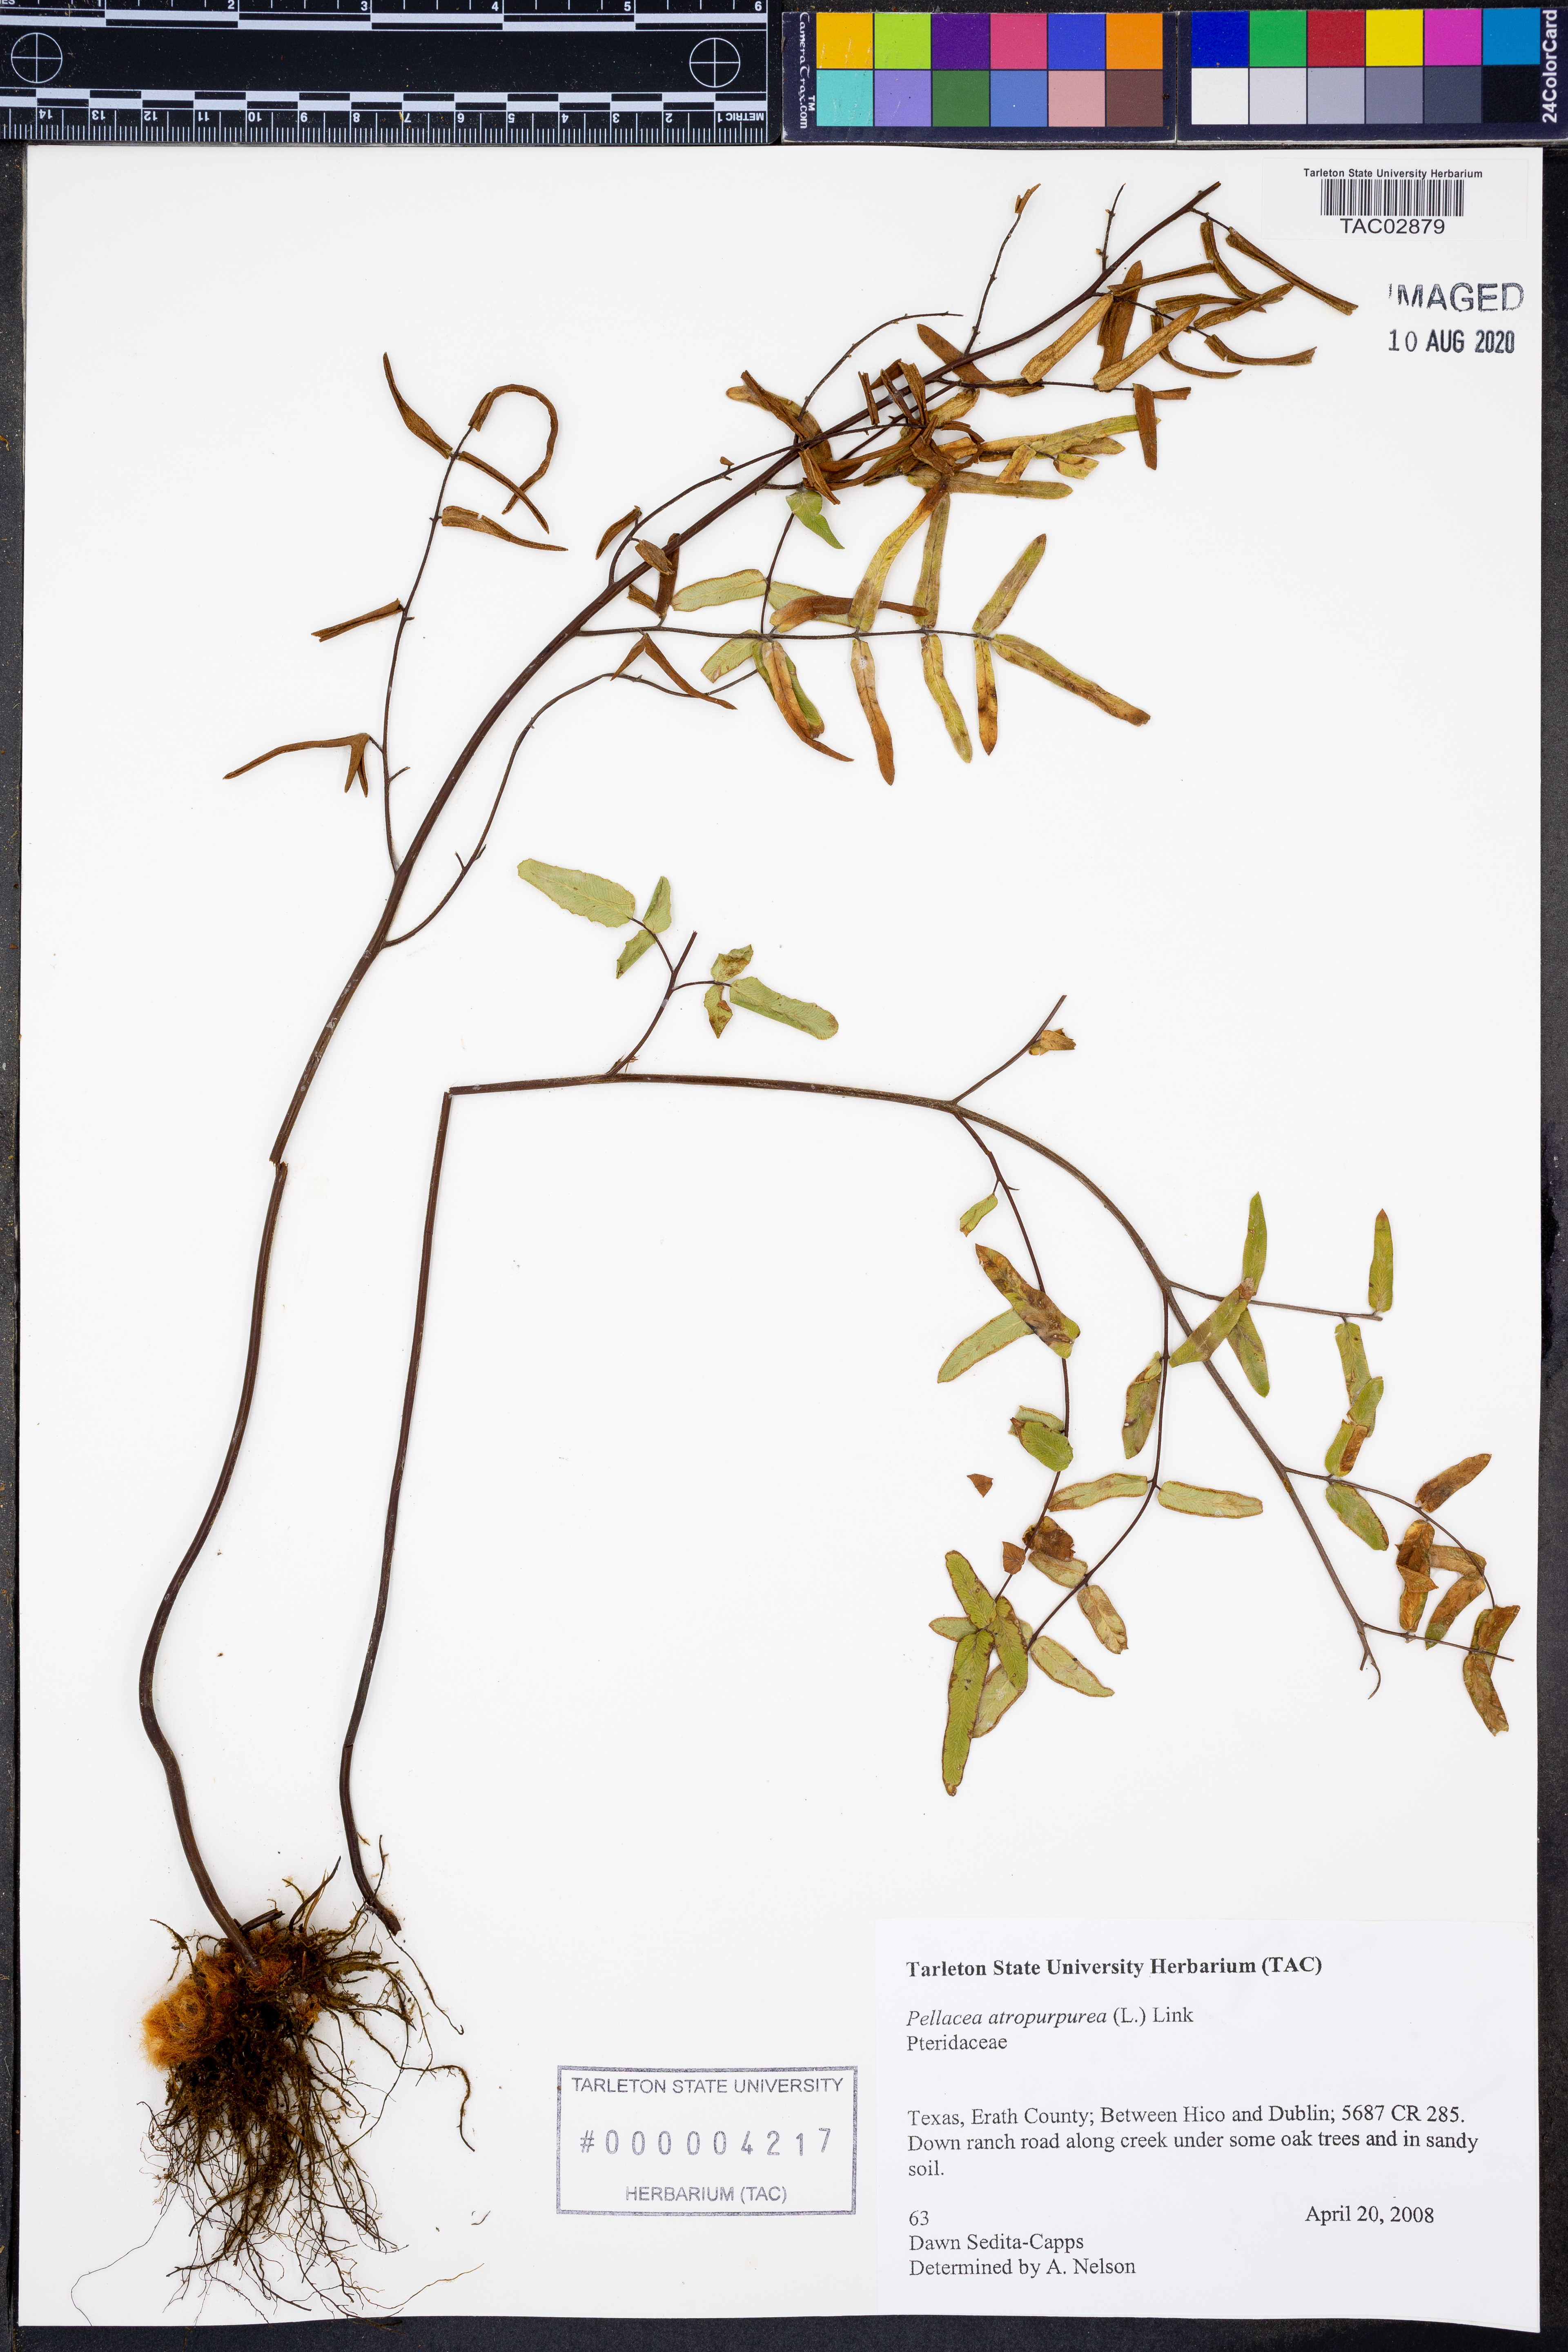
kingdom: Plantae
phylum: Tracheophyta
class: Polypodiopsida
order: Polypodiales
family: Pteridaceae
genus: Pellaea
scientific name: Pellaea atropurpurea
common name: Hairy cliffbrake
